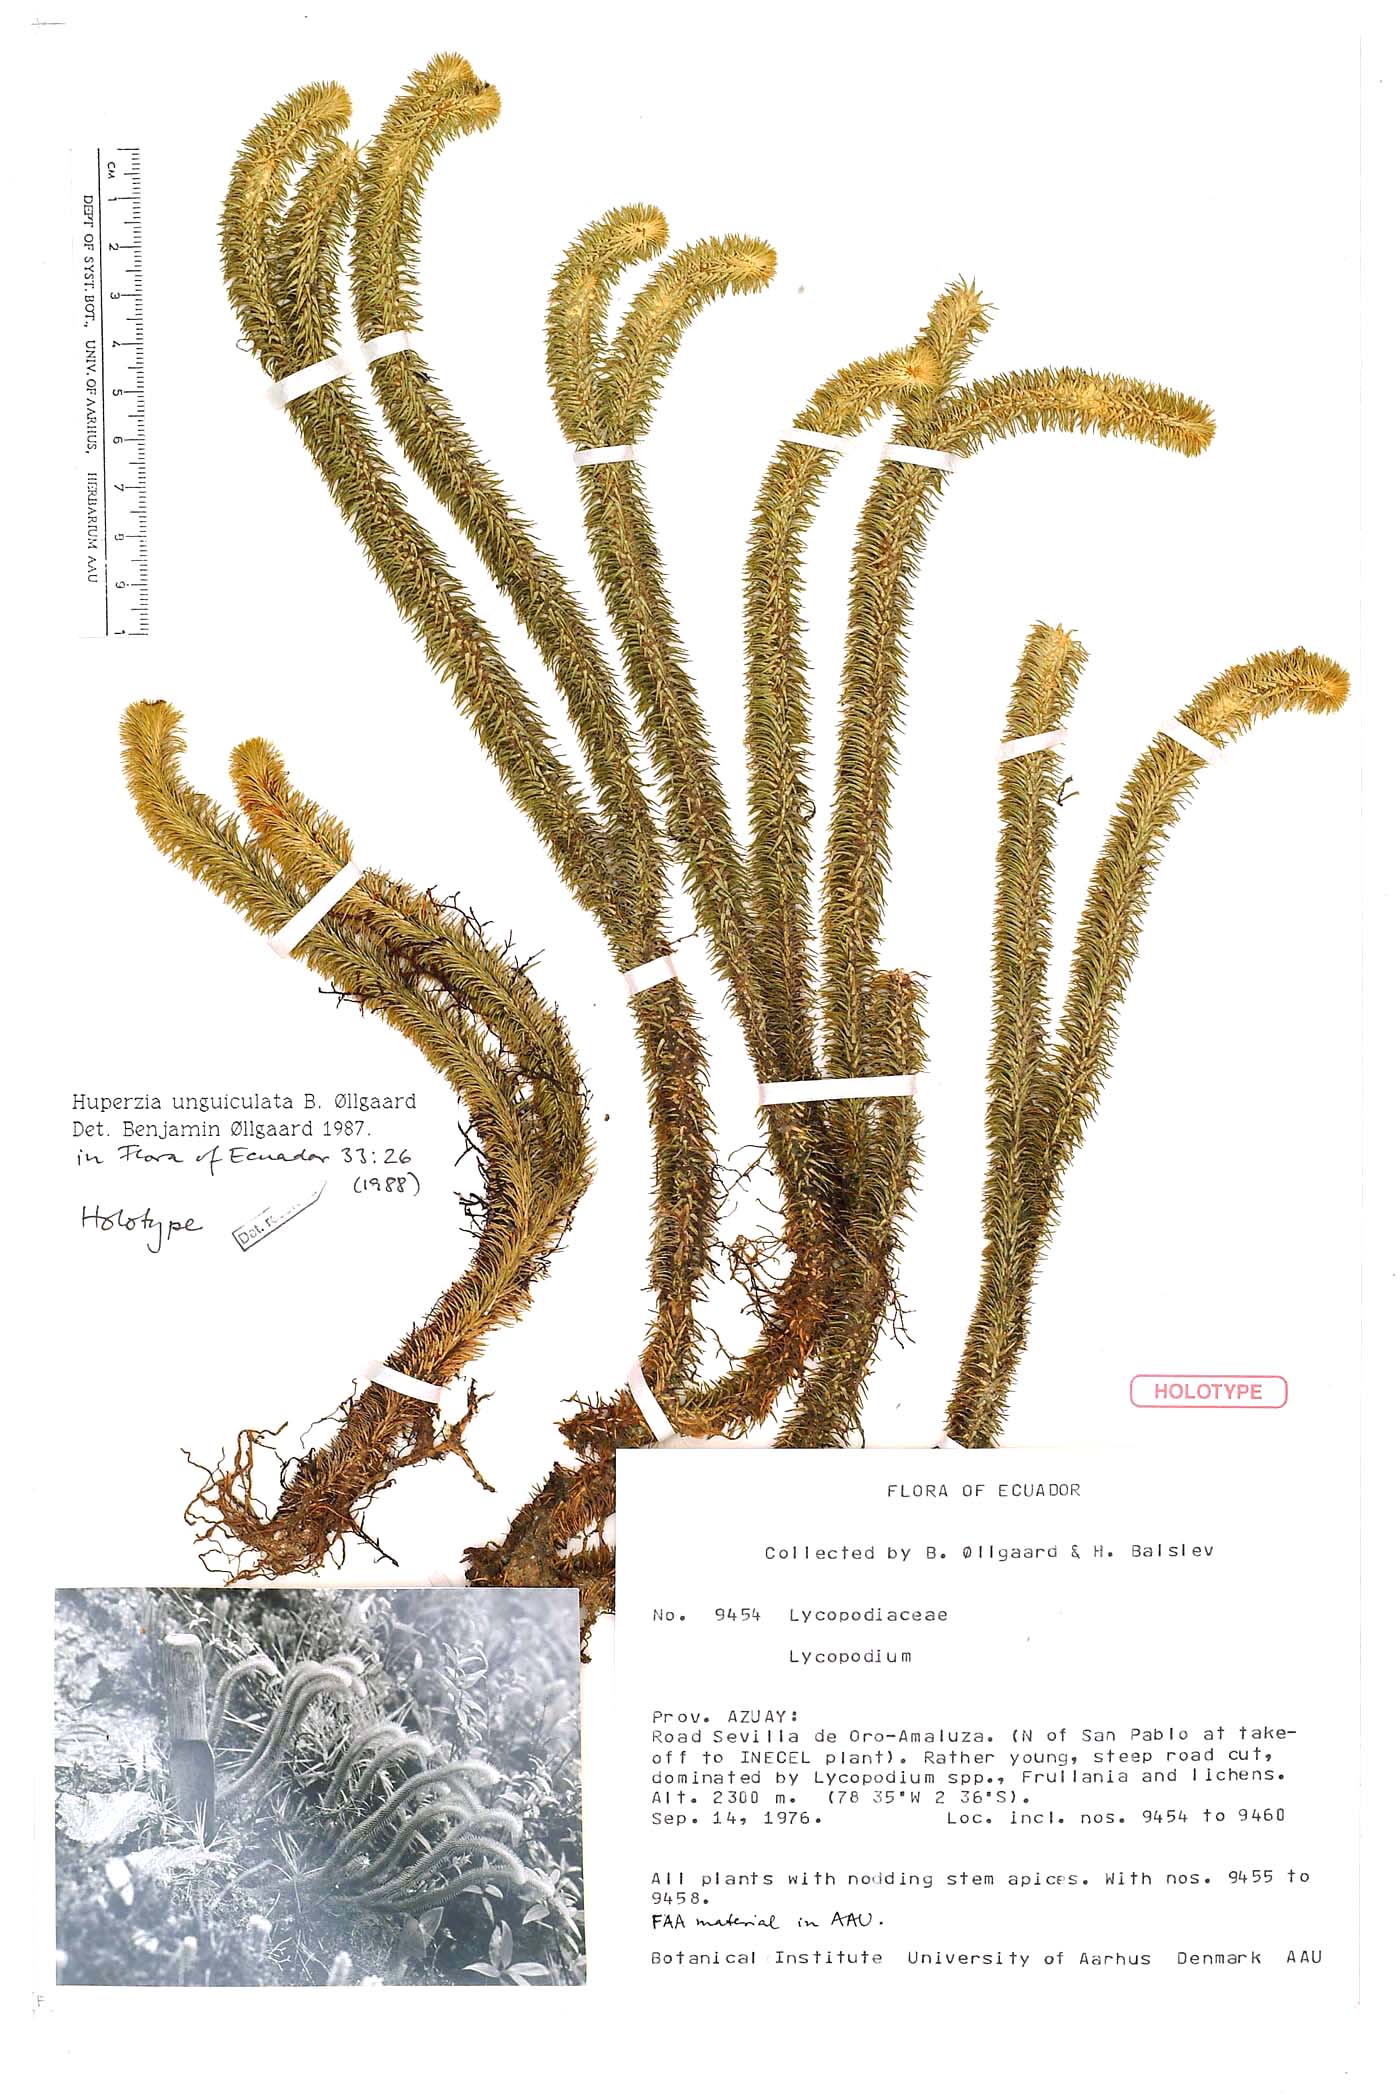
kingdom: Plantae
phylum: Tracheophyta
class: Lycopodiopsida
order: Lycopodiales
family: Lycopodiaceae
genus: Phlegmariurus
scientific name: Phlegmariurus unguiculatus
